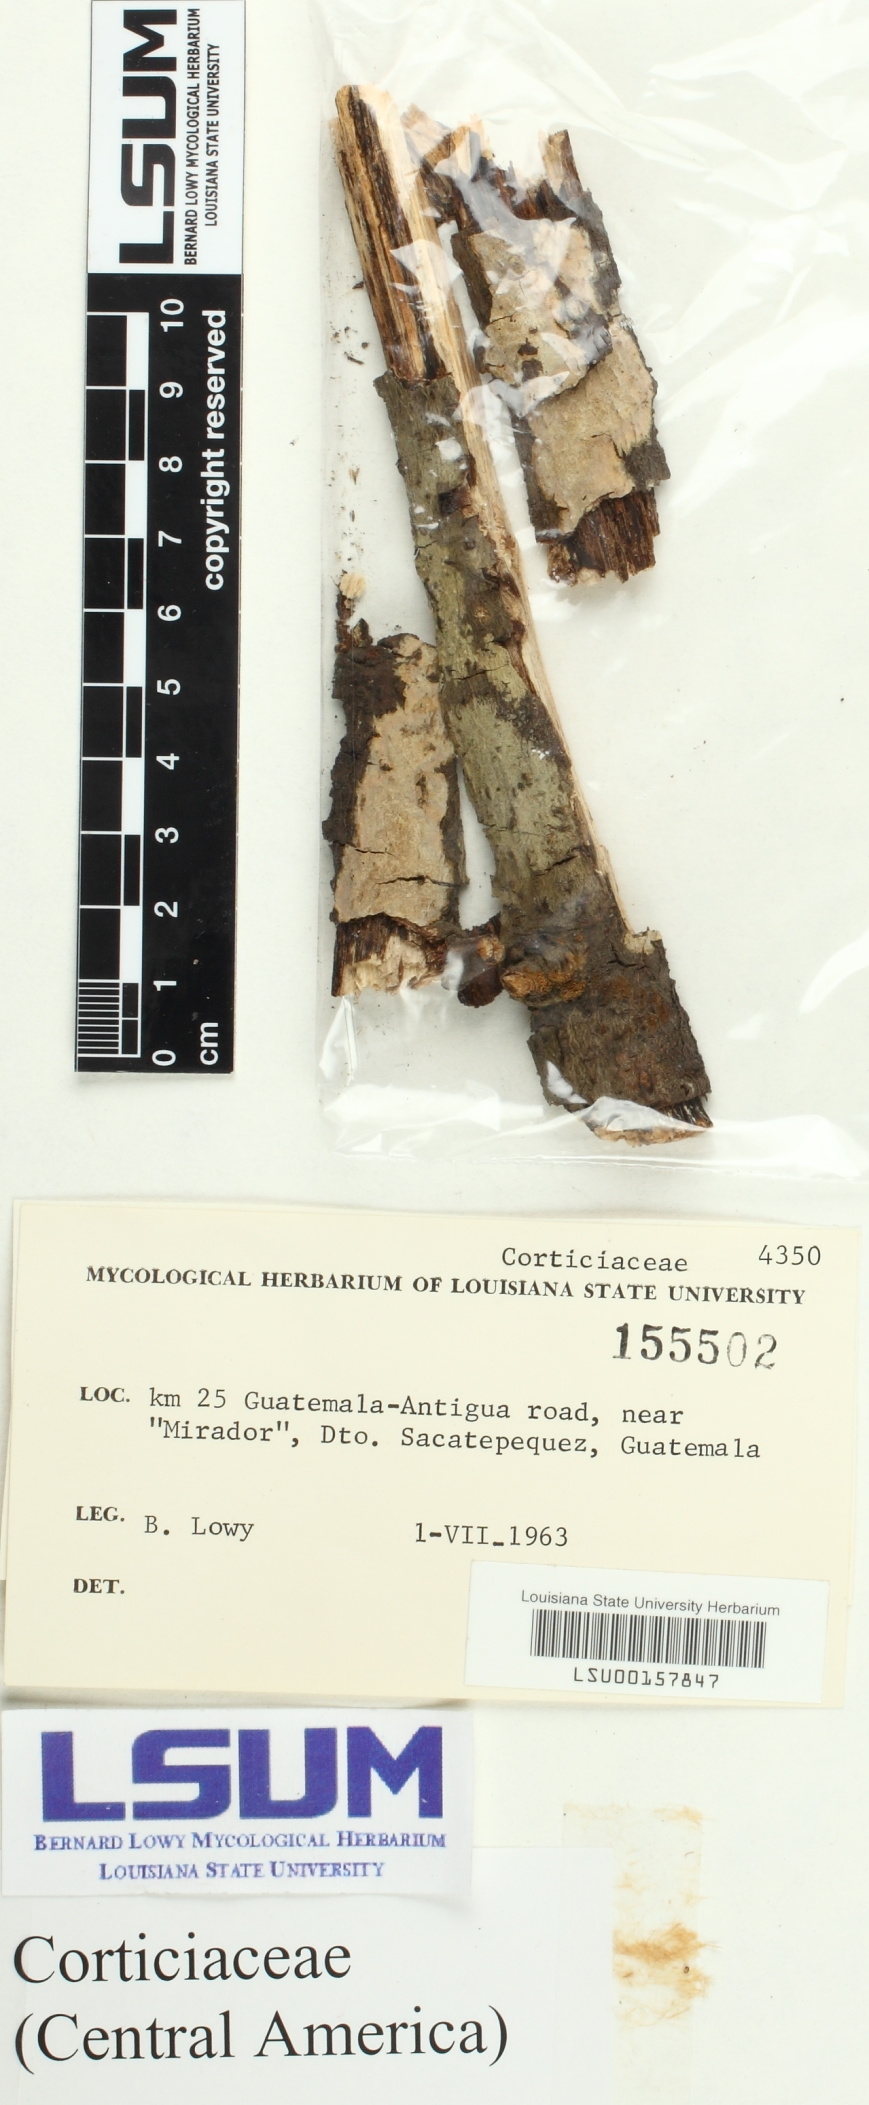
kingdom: Fungi
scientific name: Fungi
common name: Fungi
